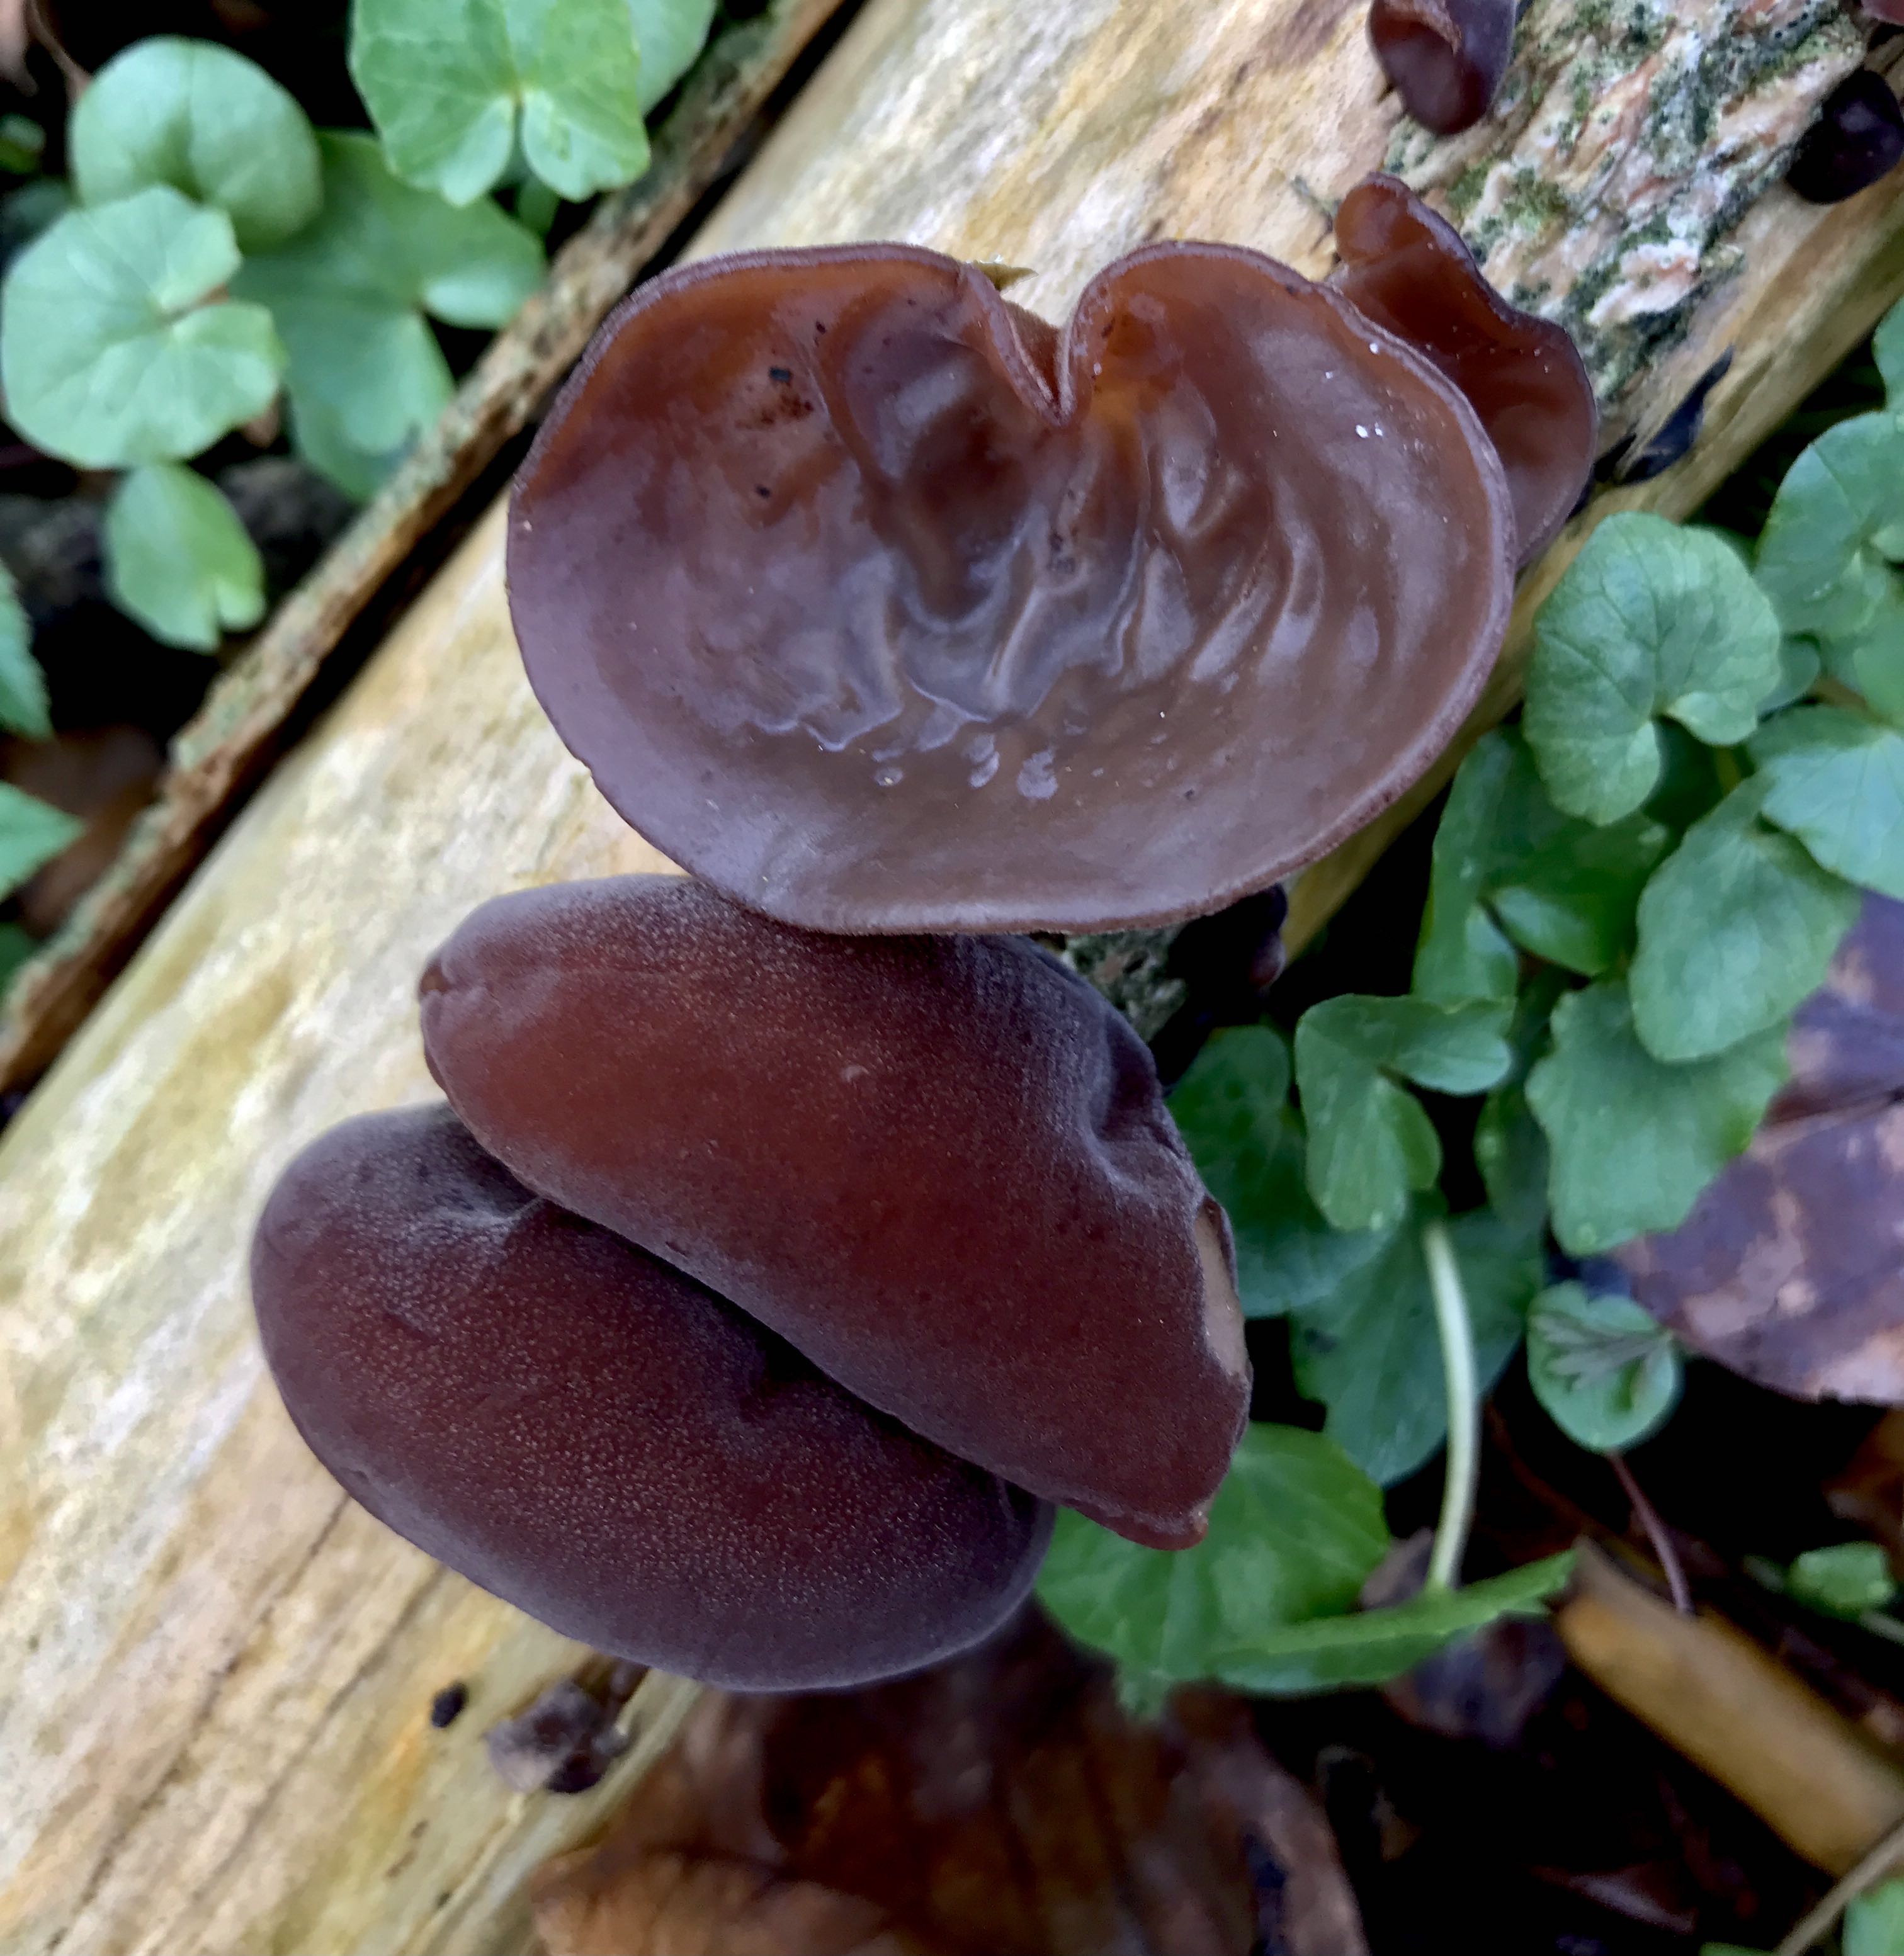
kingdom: Fungi
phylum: Basidiomycota
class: Agaricomycetes
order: Auriculariales
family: Auriculariaceae
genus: Auricularia
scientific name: Auricularia auricula-judae
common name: almindelig judasøre
